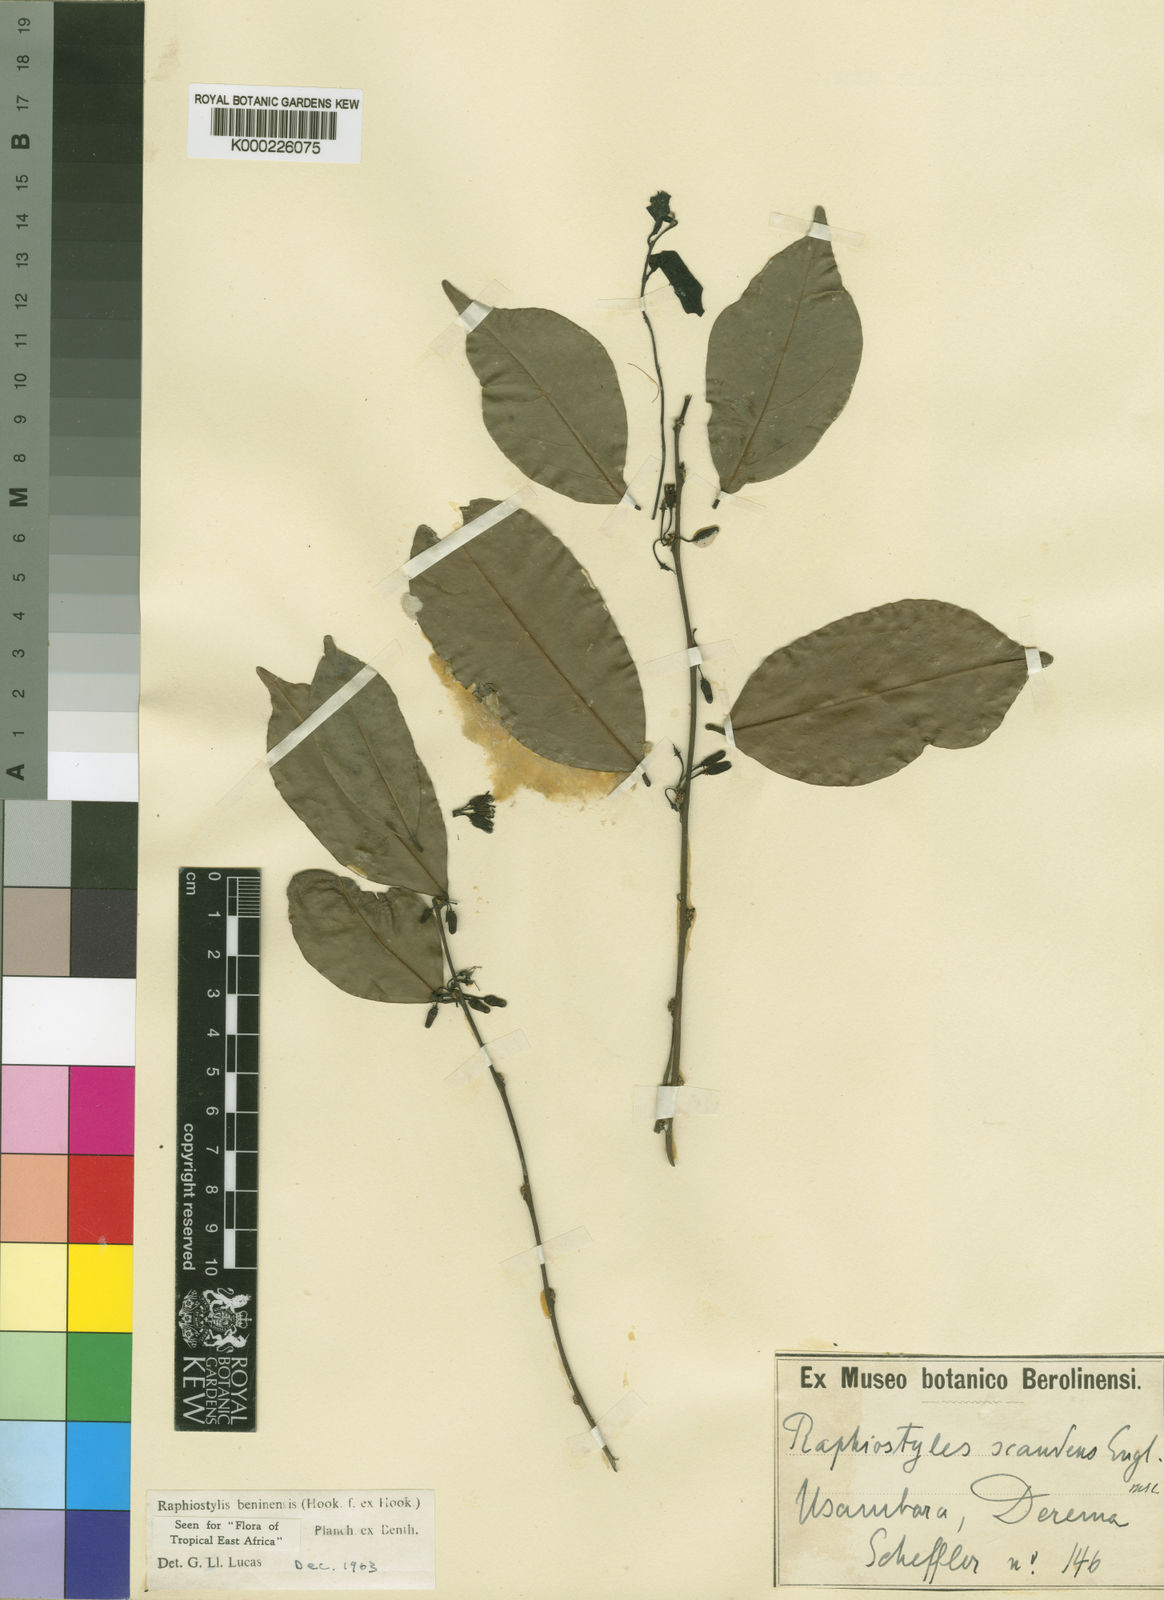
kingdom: Plantae
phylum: Tracheophyta
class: Magnoliopsida
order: Metteniusales
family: Metteniusaceae
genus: Rhaphiostylis
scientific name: Rhaphiostylis beninensis
